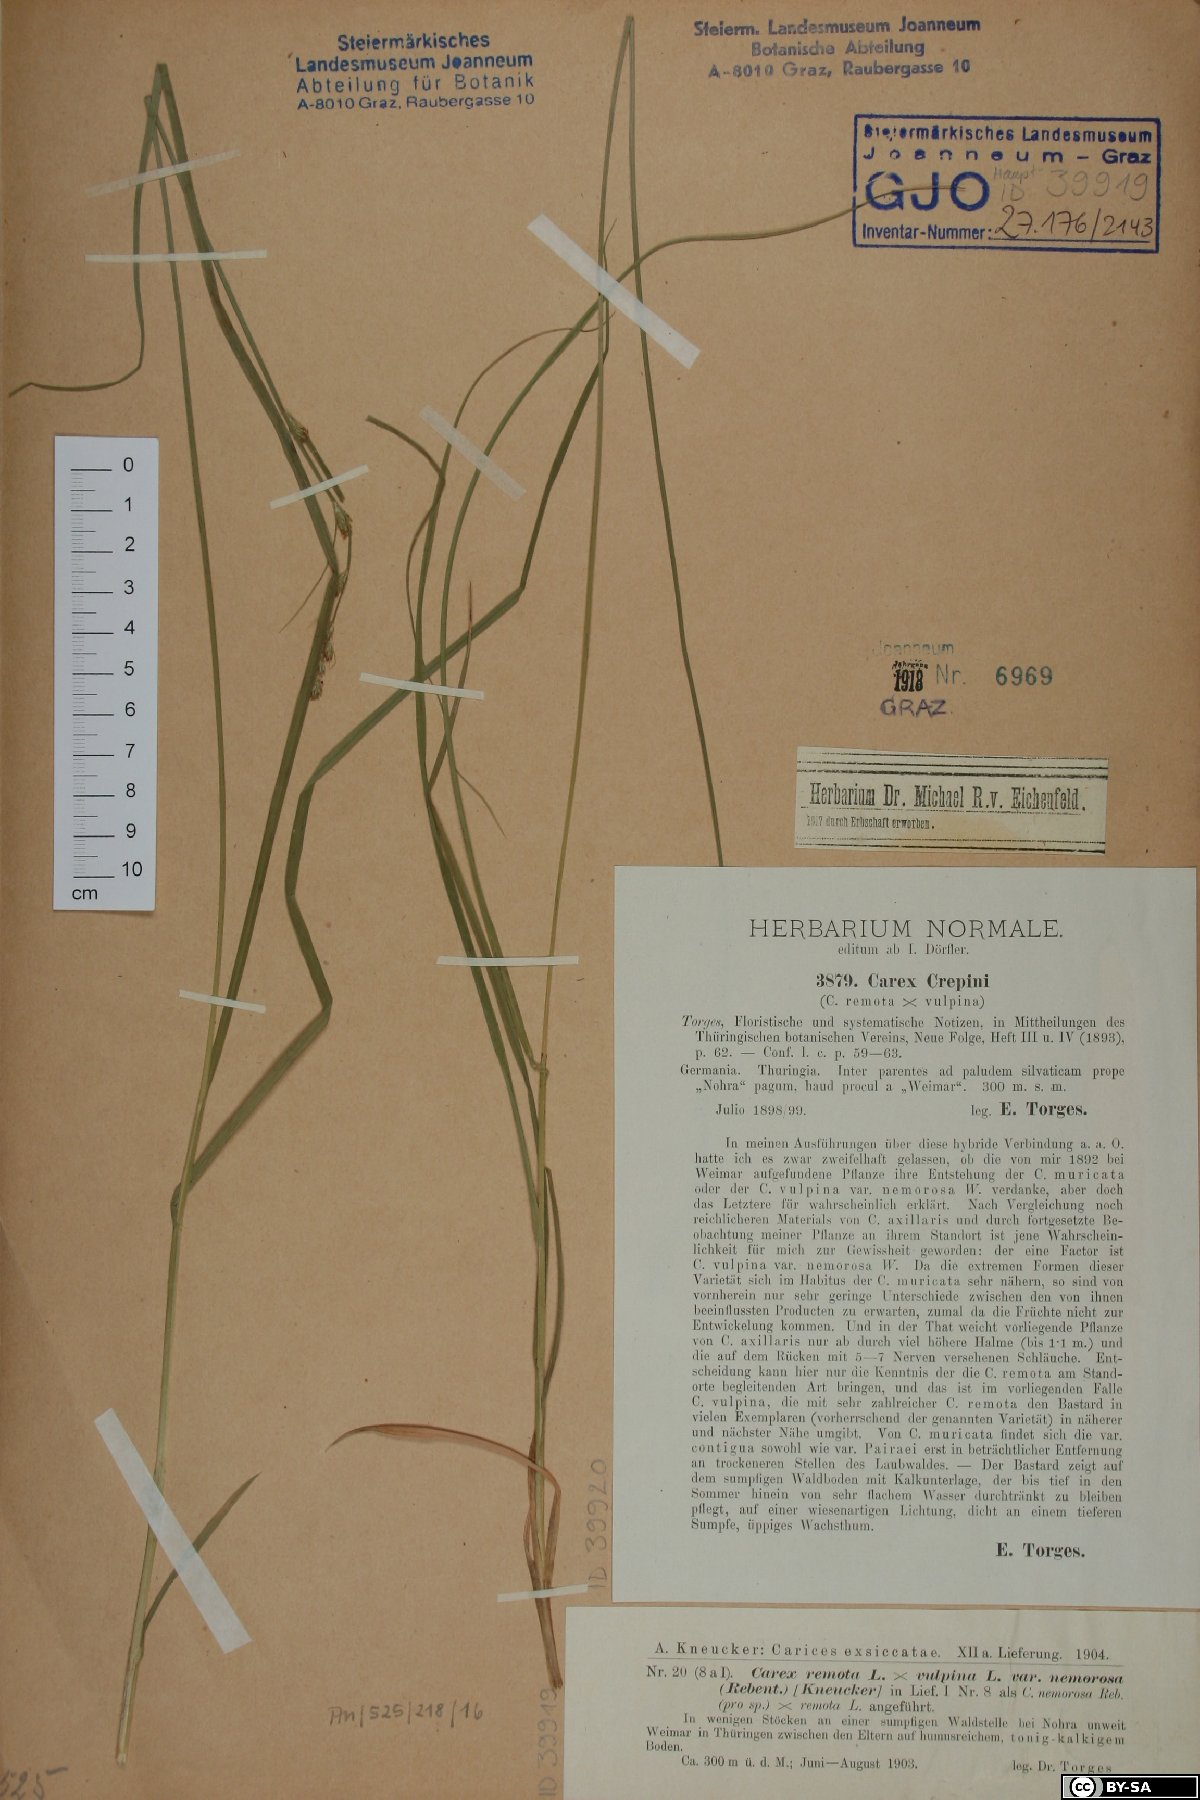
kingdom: Plantae
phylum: Tracheophyta
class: Liliopsida
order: Poales
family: Cyperaceae
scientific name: Cyperaceae
